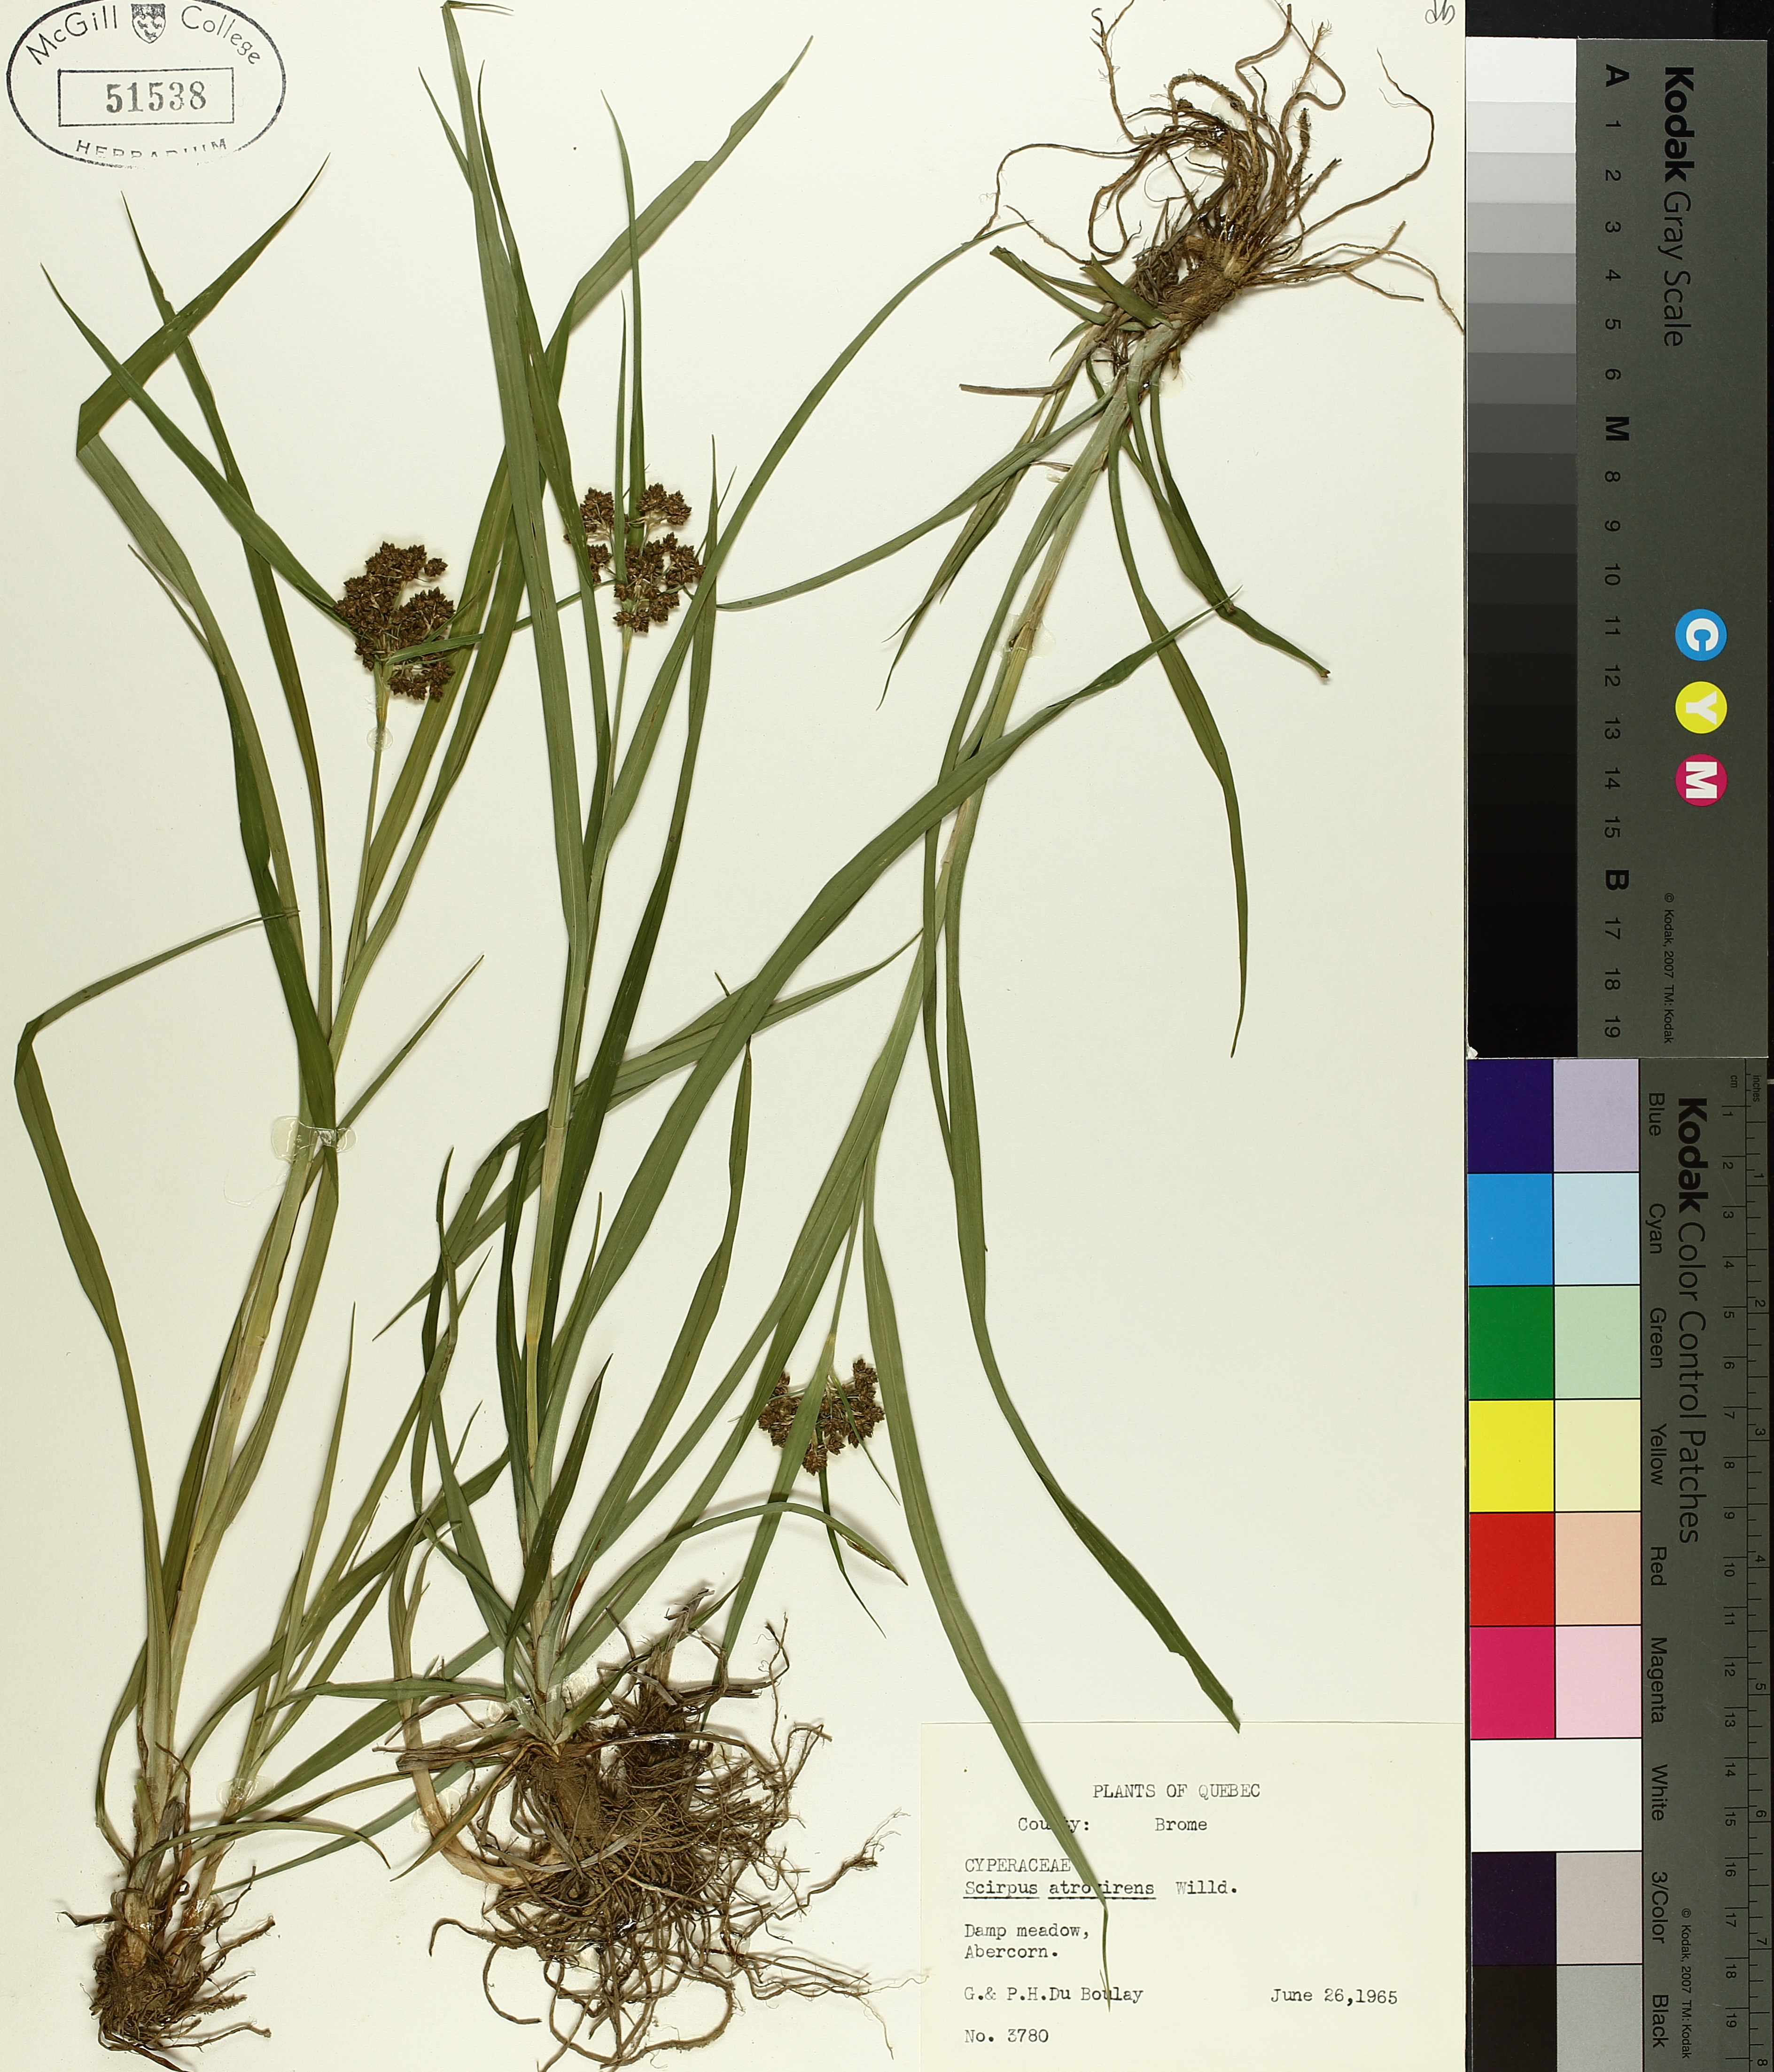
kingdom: Plantae
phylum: Tracheophyta
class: Liliopsida
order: Poales
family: Cyperaceae
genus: Scirpus
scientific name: Scirpus atrovirens
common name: Black bulrush
